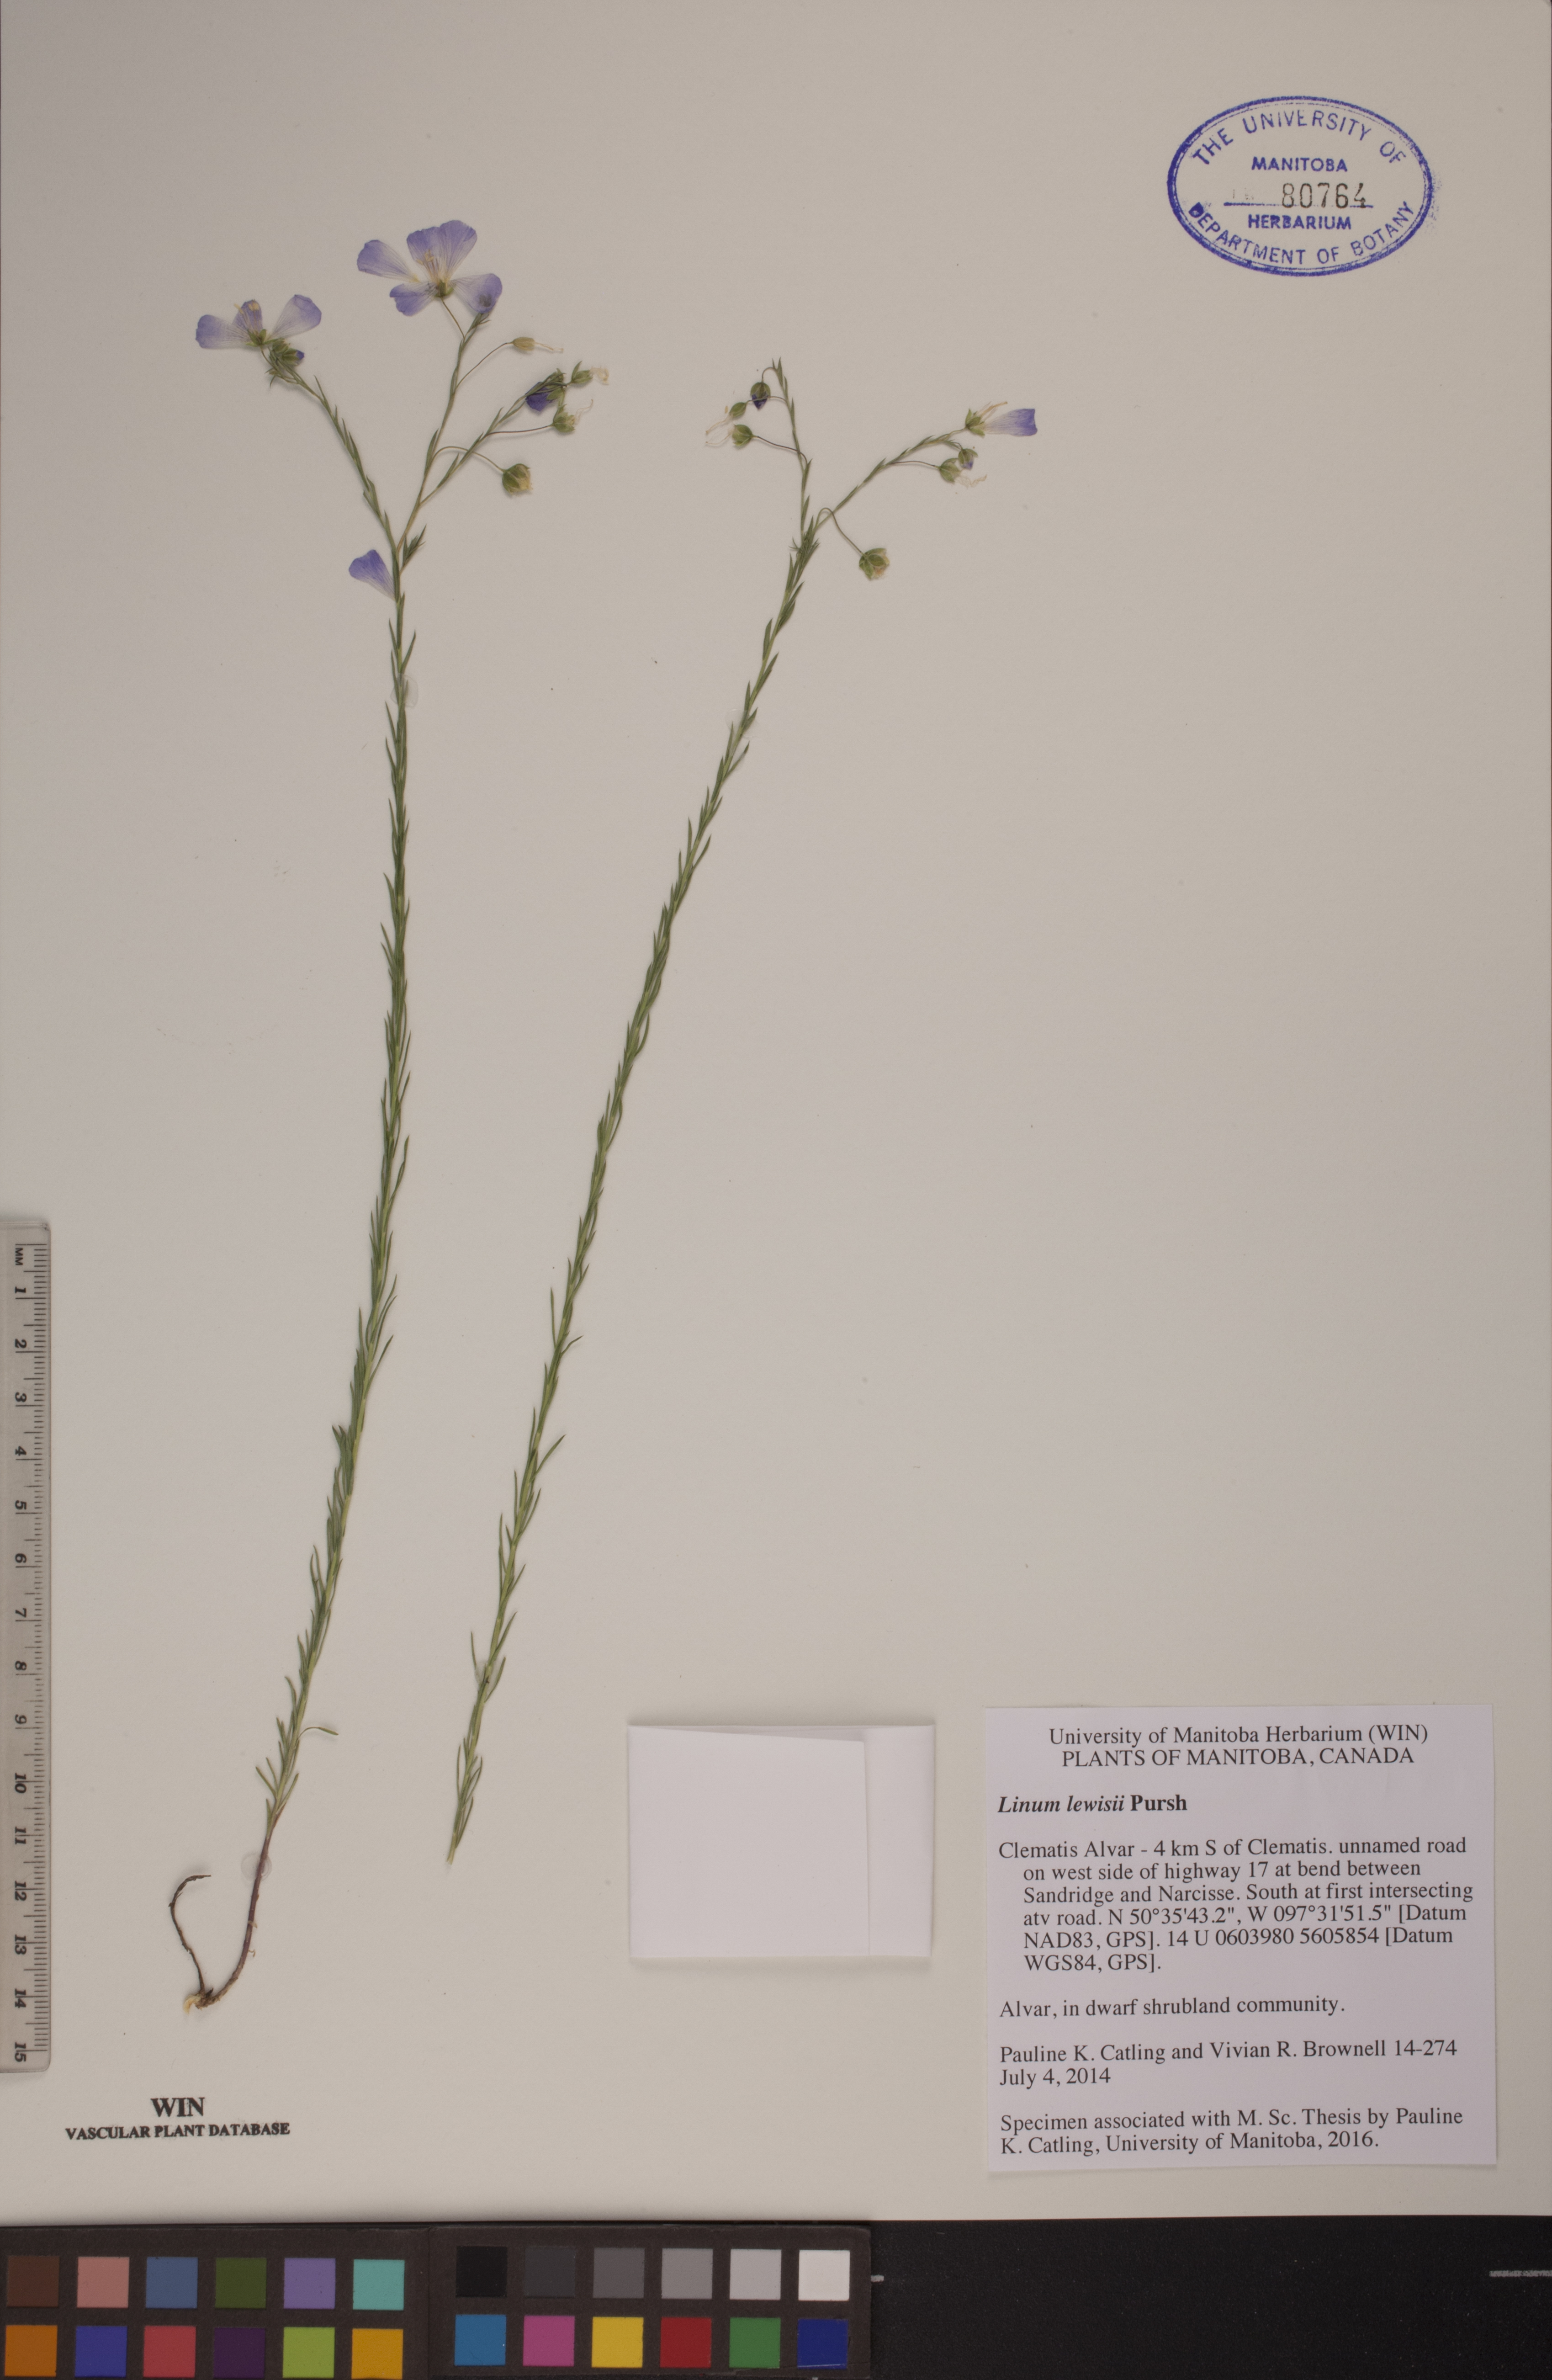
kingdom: Plantae
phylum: Tracheophyta
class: Magnoliopsida
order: Malpighiales
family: Linaceae
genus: Linum
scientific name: Linum lewisii
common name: Prairie flax
